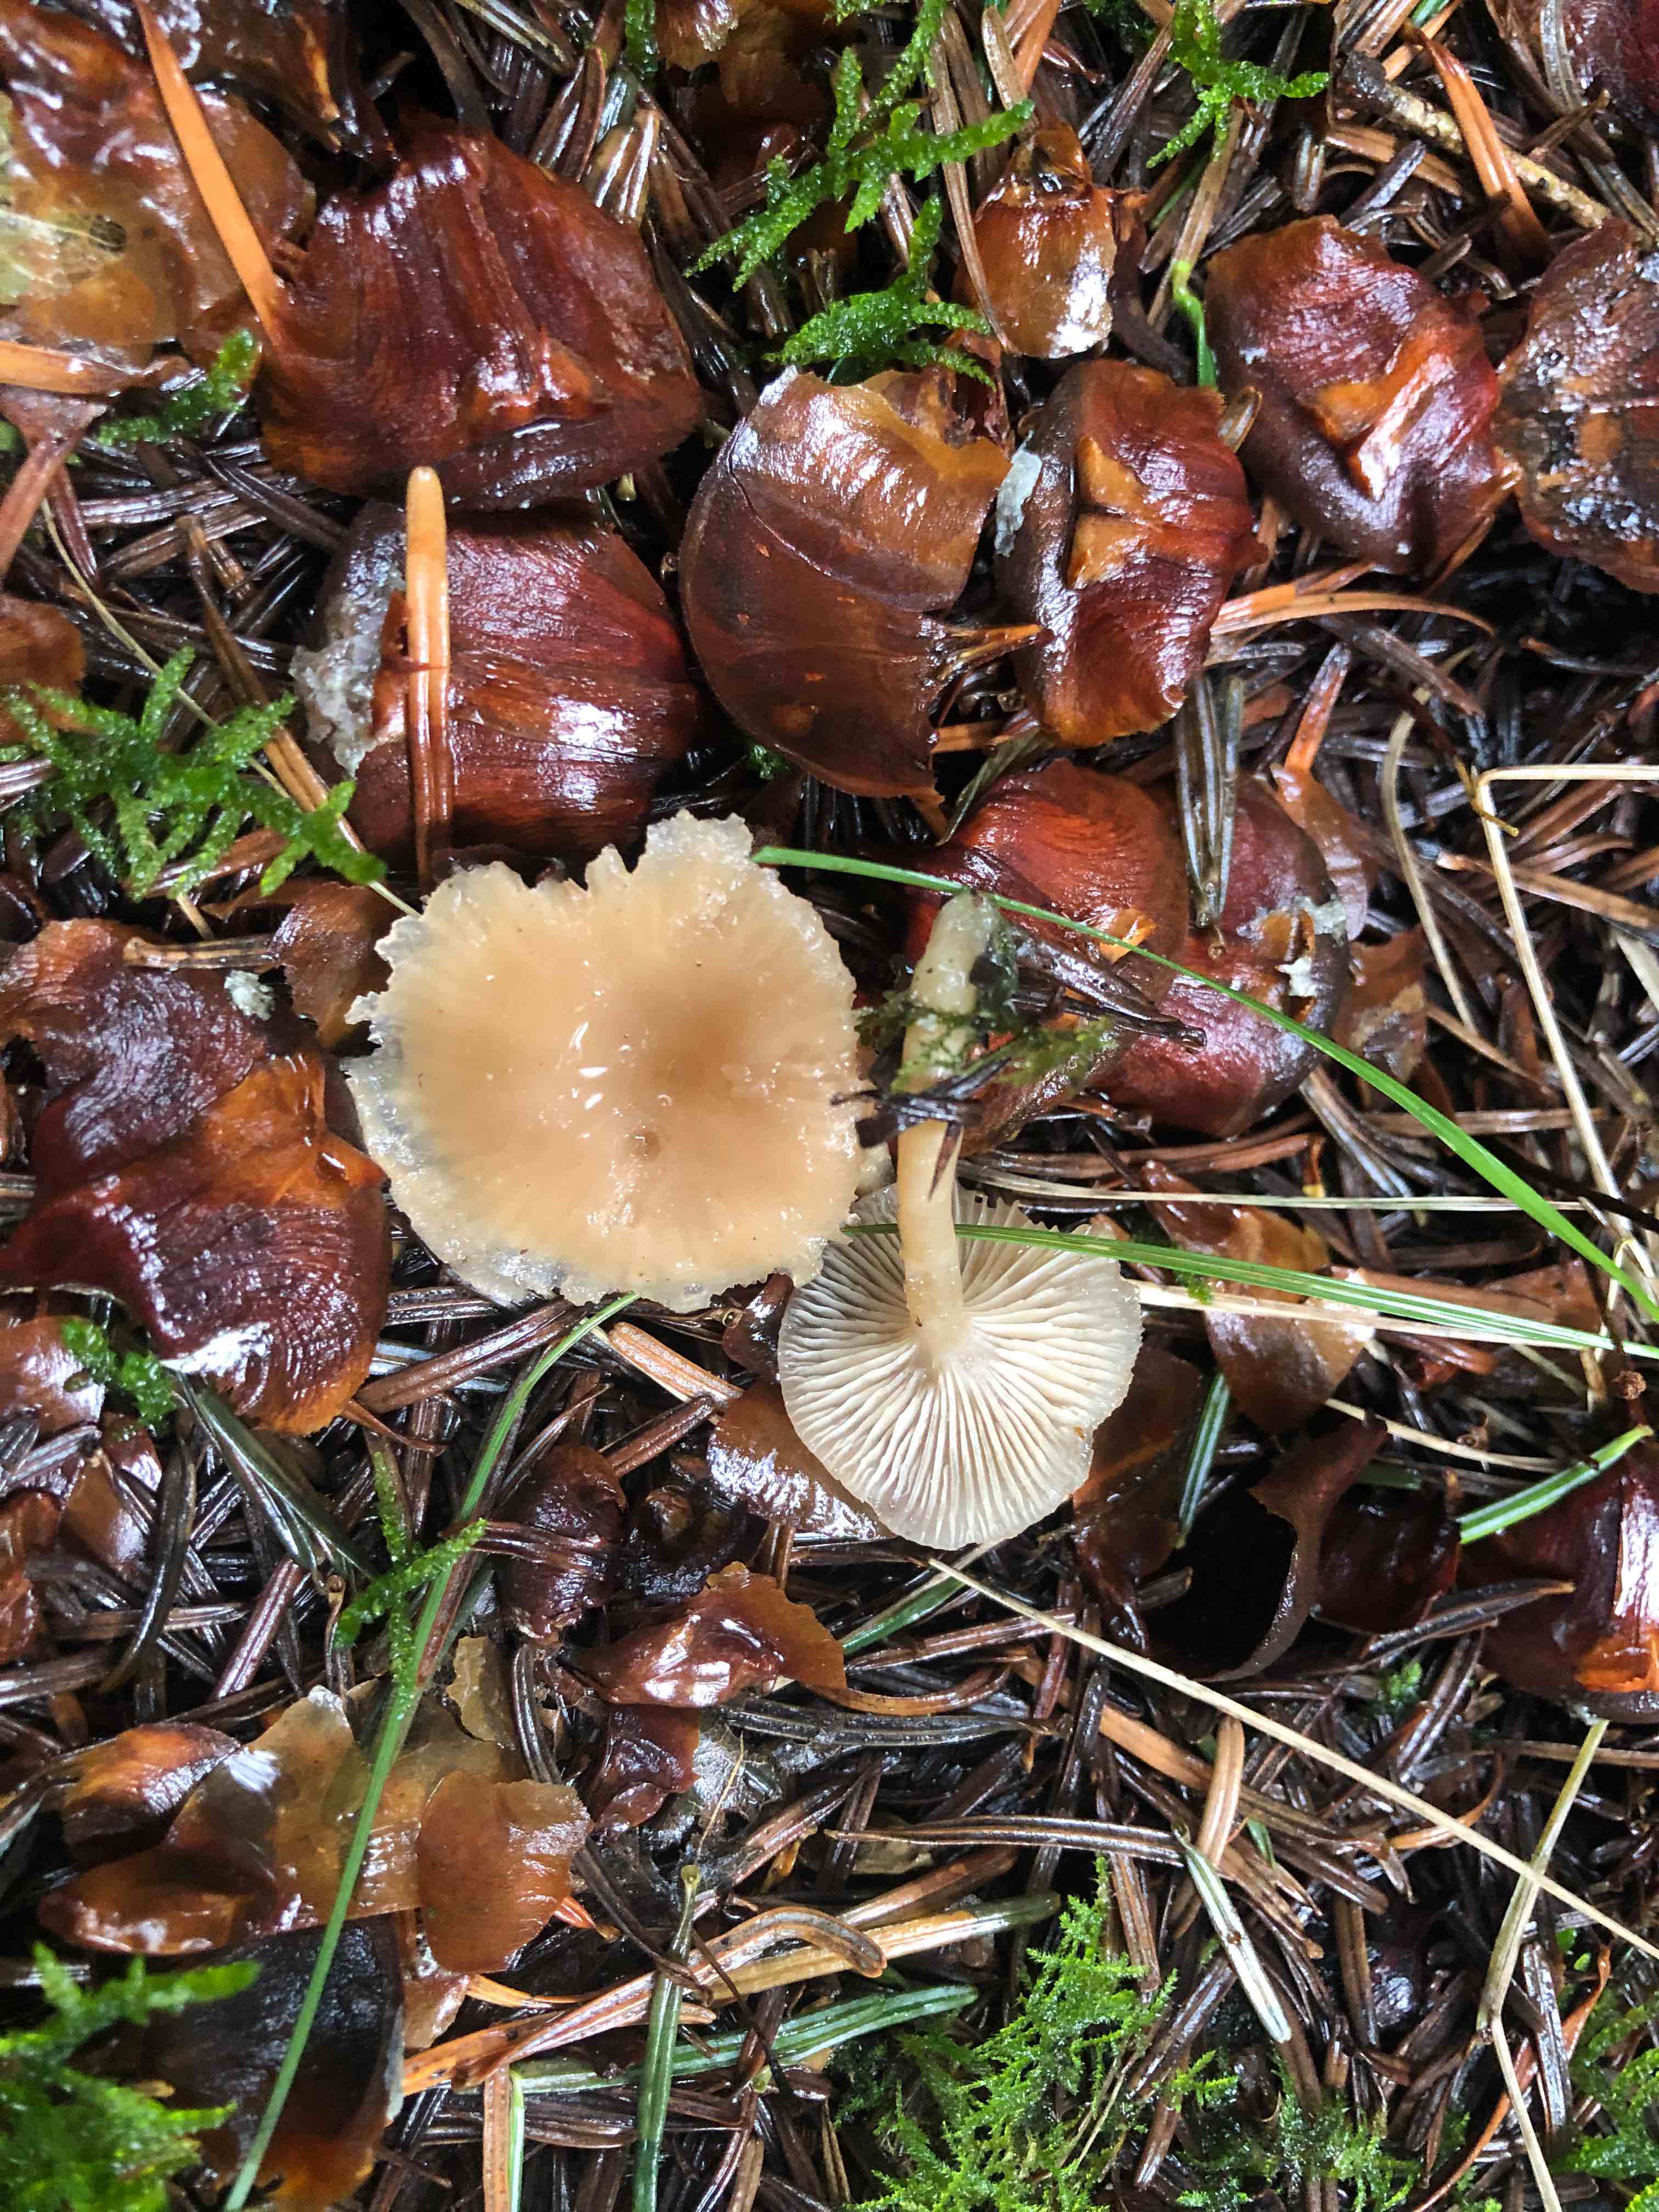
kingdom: Fungi
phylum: Basidiomycota
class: Agaricomycetes
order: Agaricales
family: Tricholomataceae
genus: Clitocybe
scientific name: Clitocybe fragrans
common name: vellugtende tragthat
